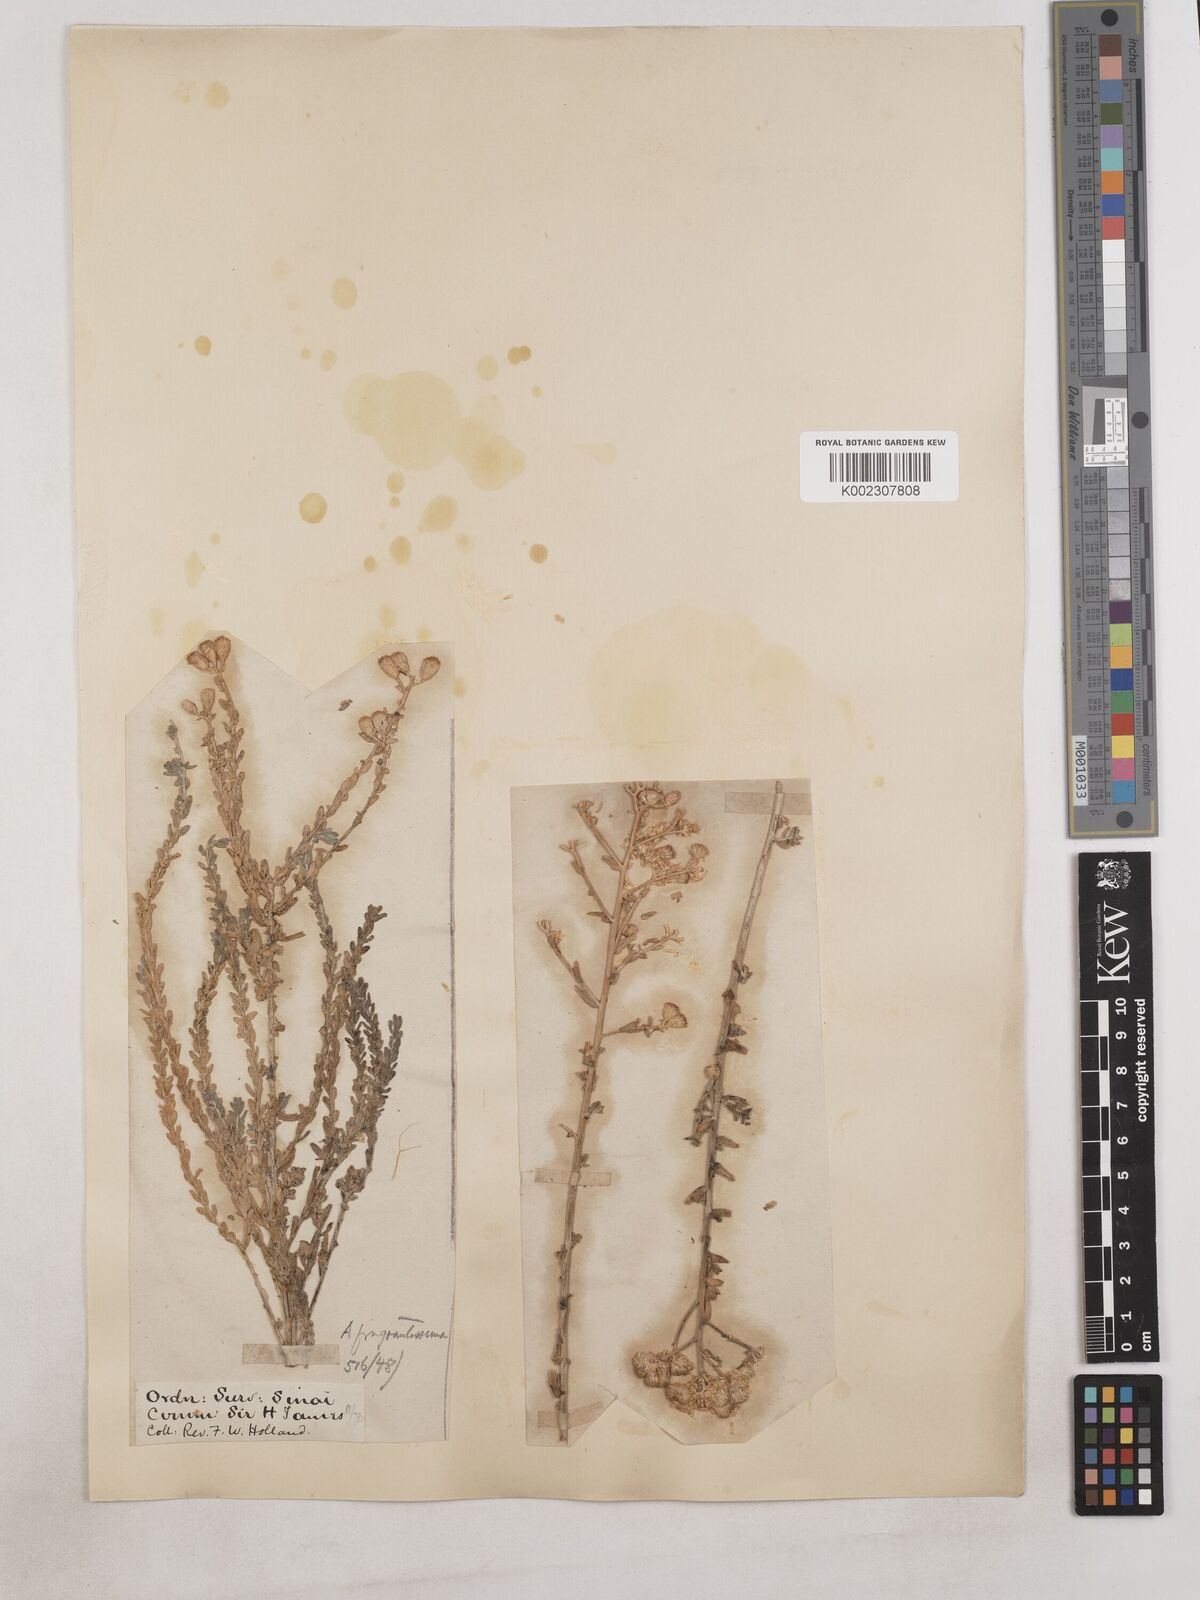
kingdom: Plantae
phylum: Tracheophyta
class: Magnoliopsida
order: Asterales
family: Asteraceae
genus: Achillea
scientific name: Achillea fragrantissima
